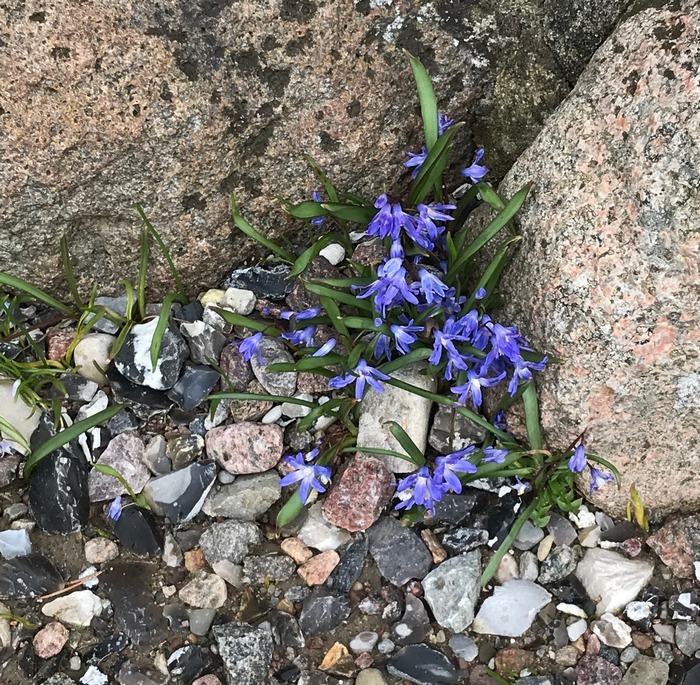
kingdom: Plantae
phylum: Tracheophyta
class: Liliopsida
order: Asparagales
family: Asparagaceae
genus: Scilla
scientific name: Scilla forbesii
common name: Almindelig snepryd
